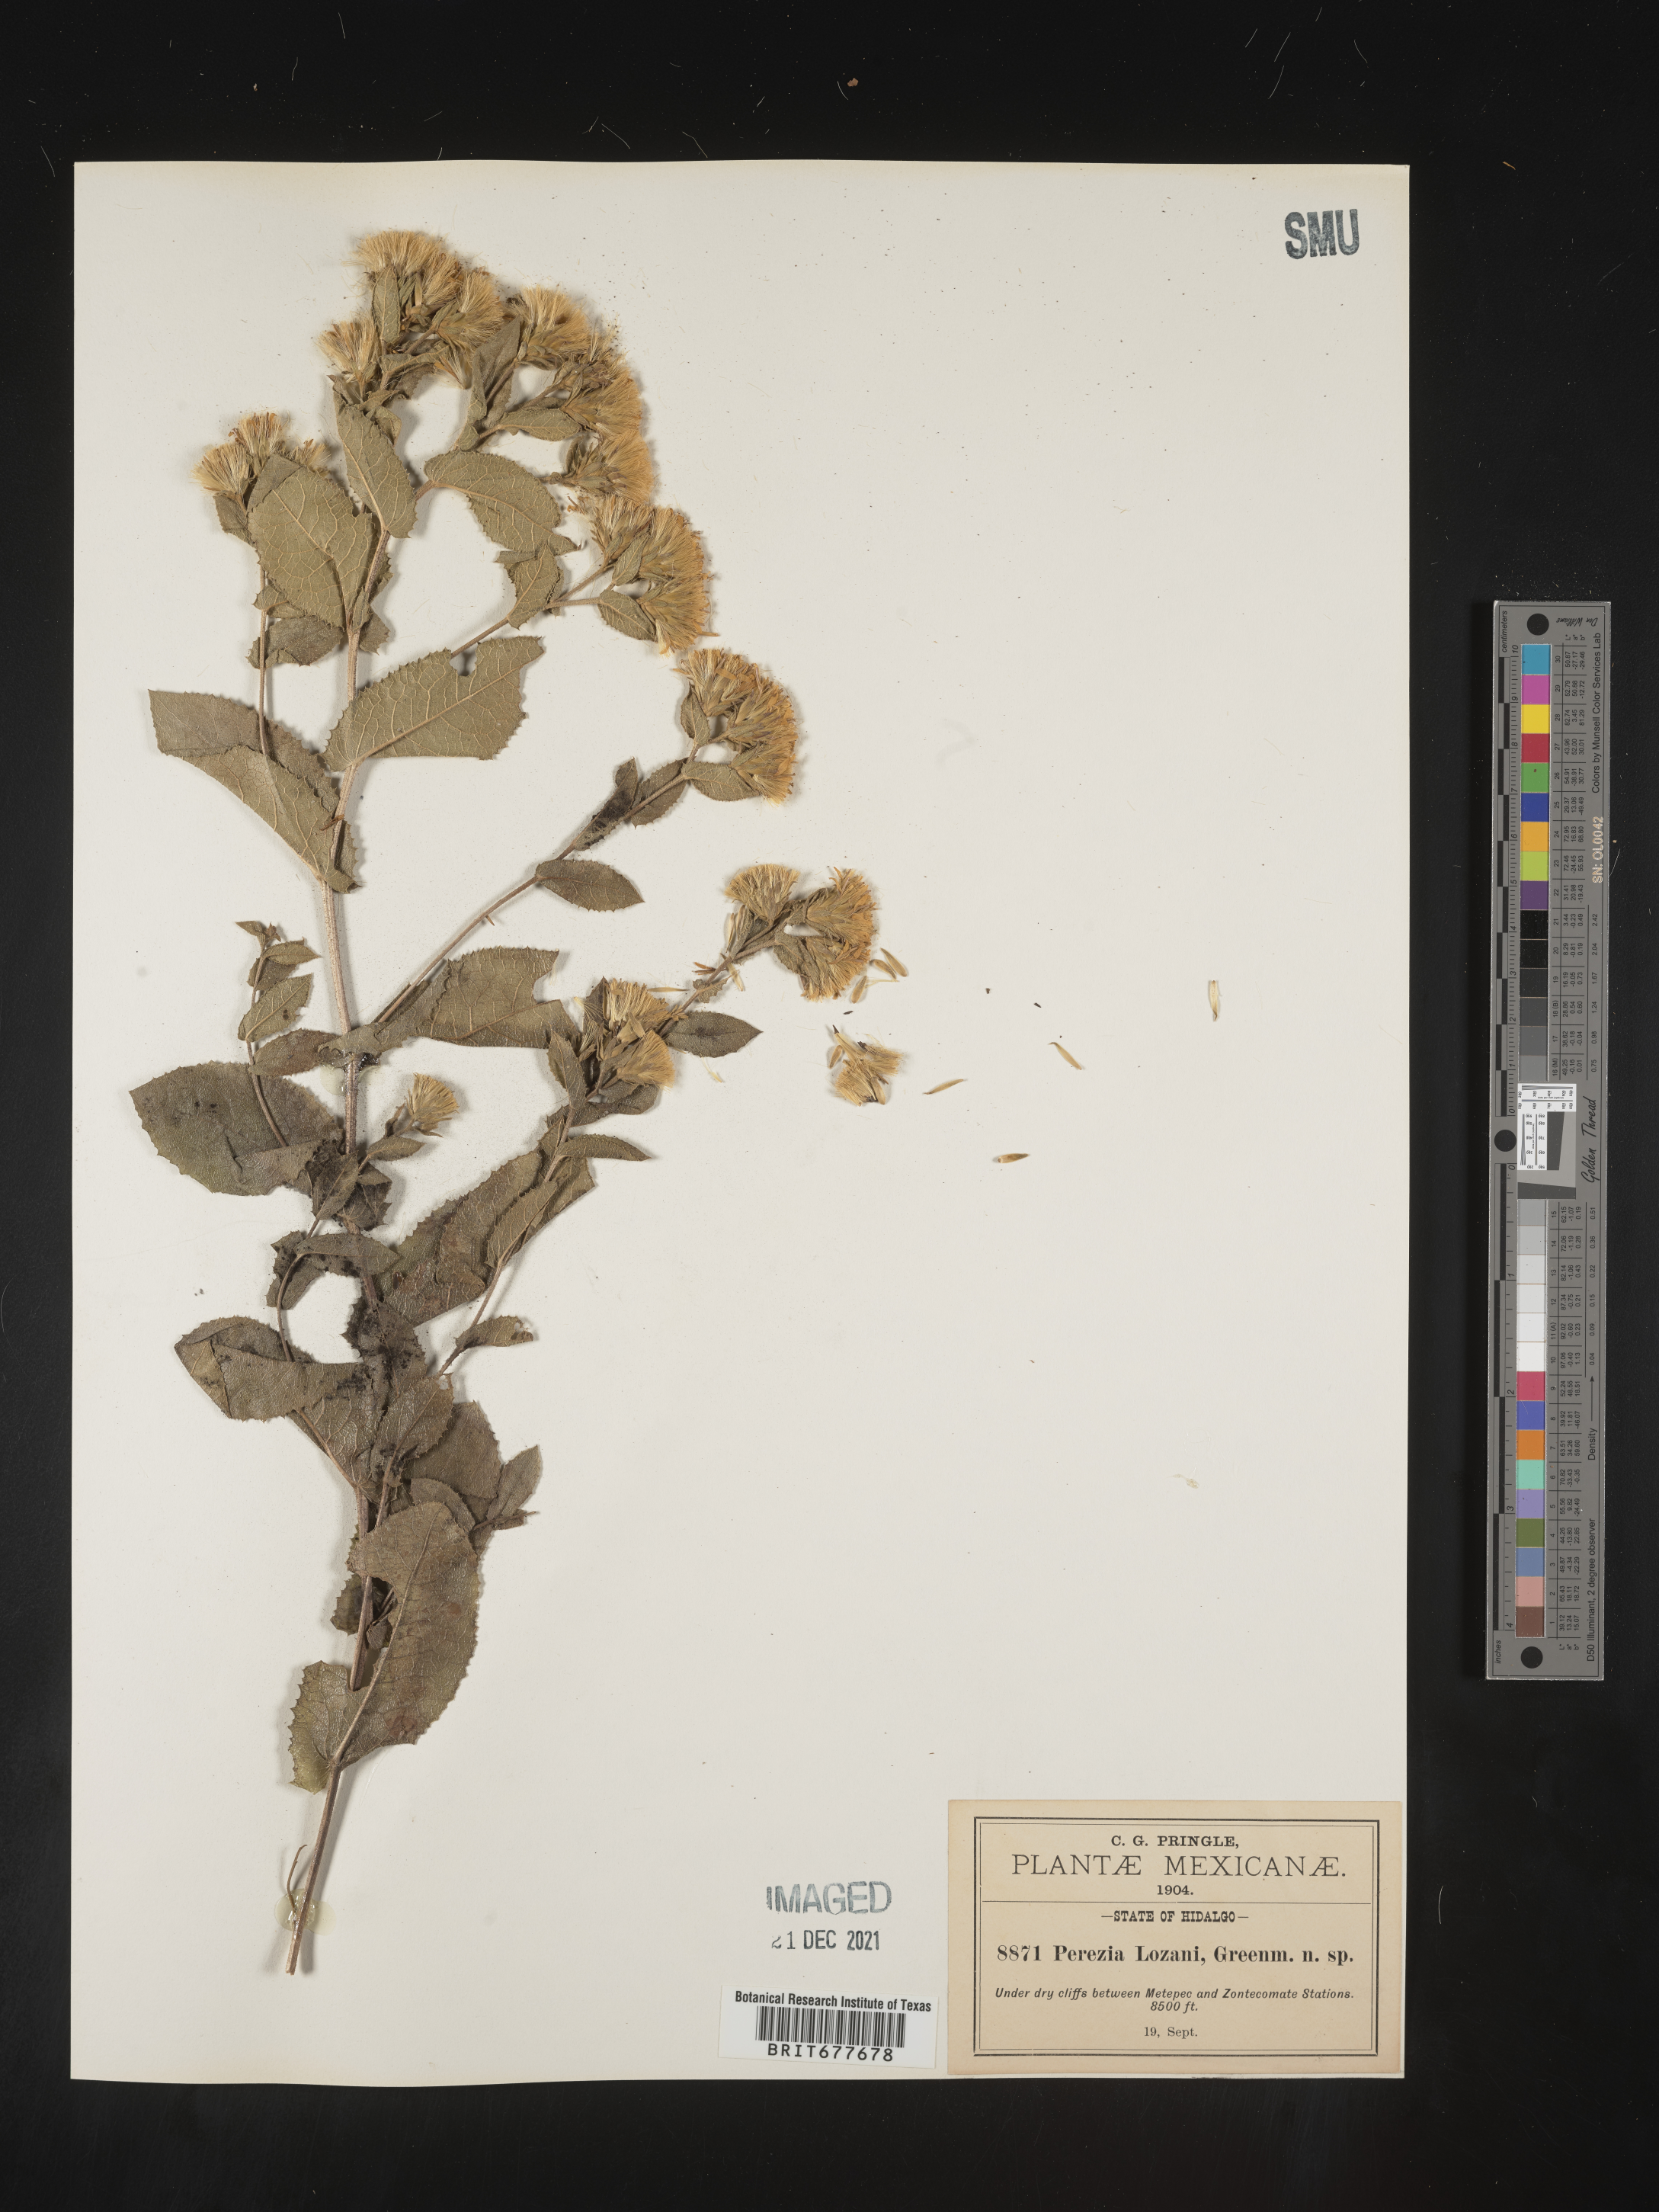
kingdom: Plantae
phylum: Tracheophyta
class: Magnoliopsida
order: Asterales
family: Asteraceae
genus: Perezia
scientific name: Perezia
